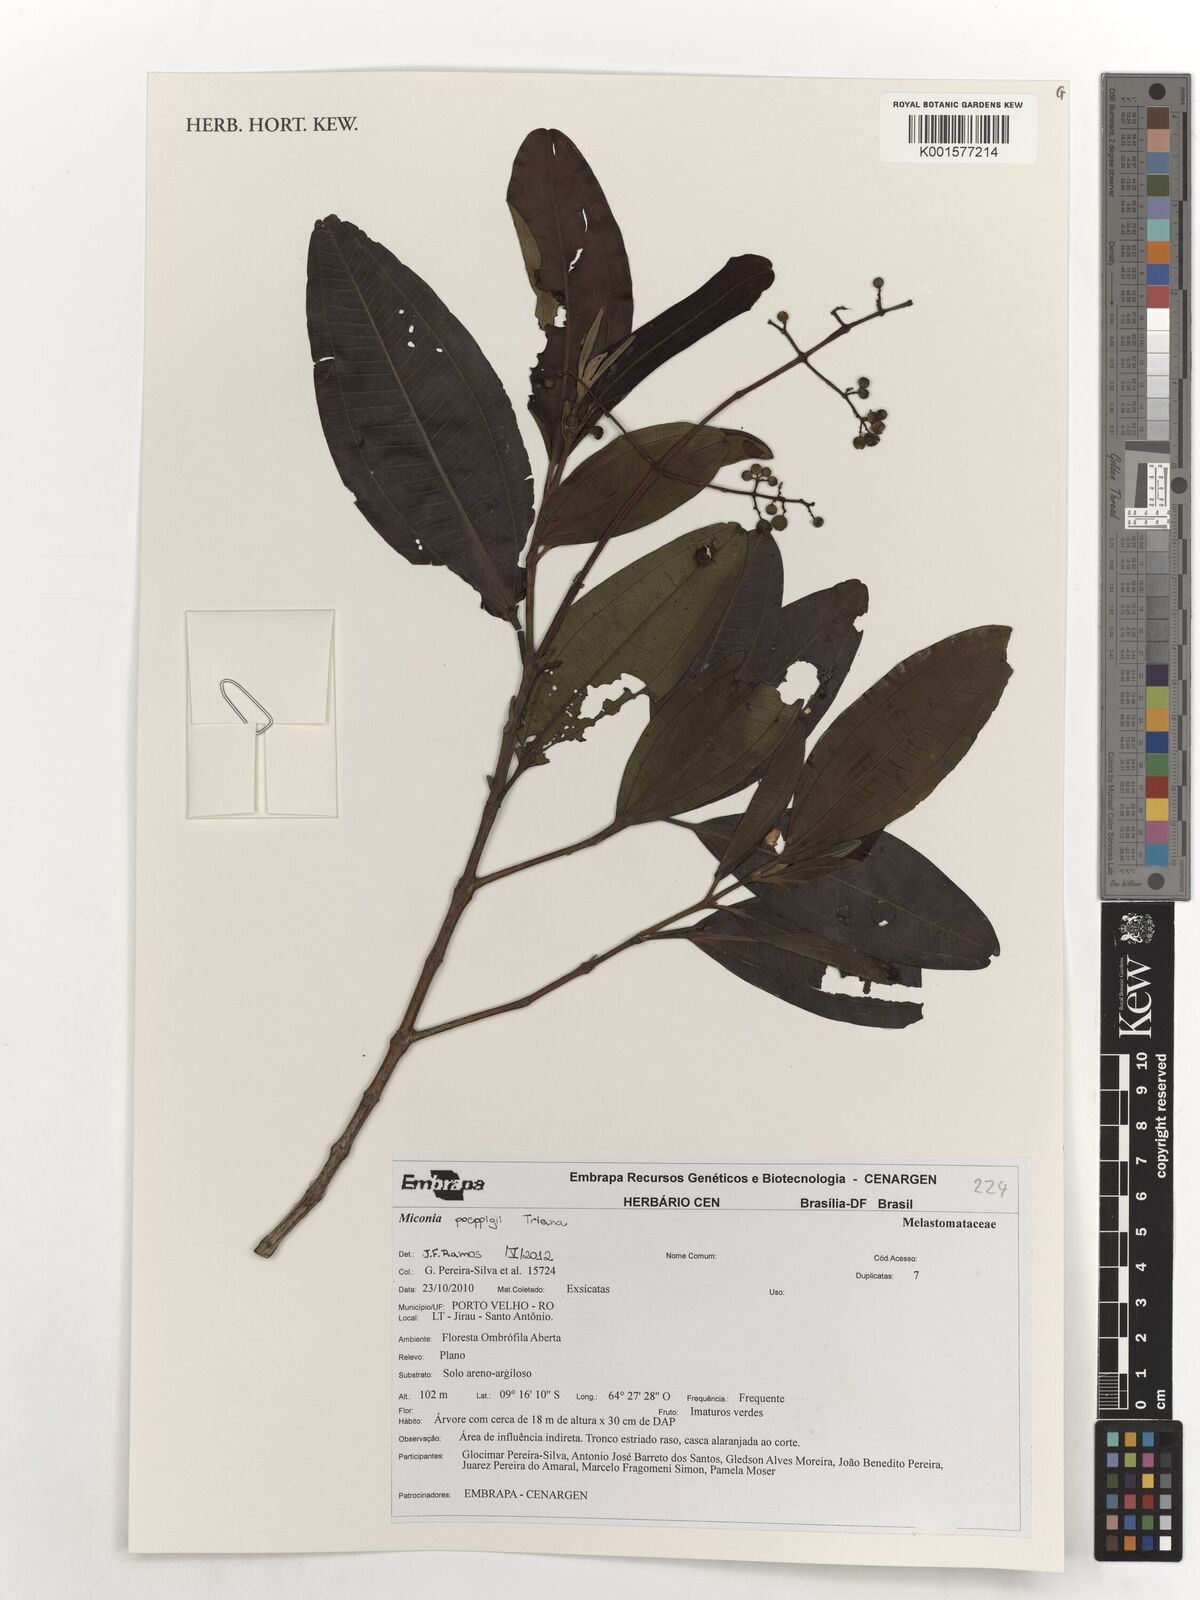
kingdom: Plantae
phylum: Tracheophyta
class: Magnoliopsida
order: Myrtales
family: Melastomataceae
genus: Miconia
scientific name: Miconia poeppigii
